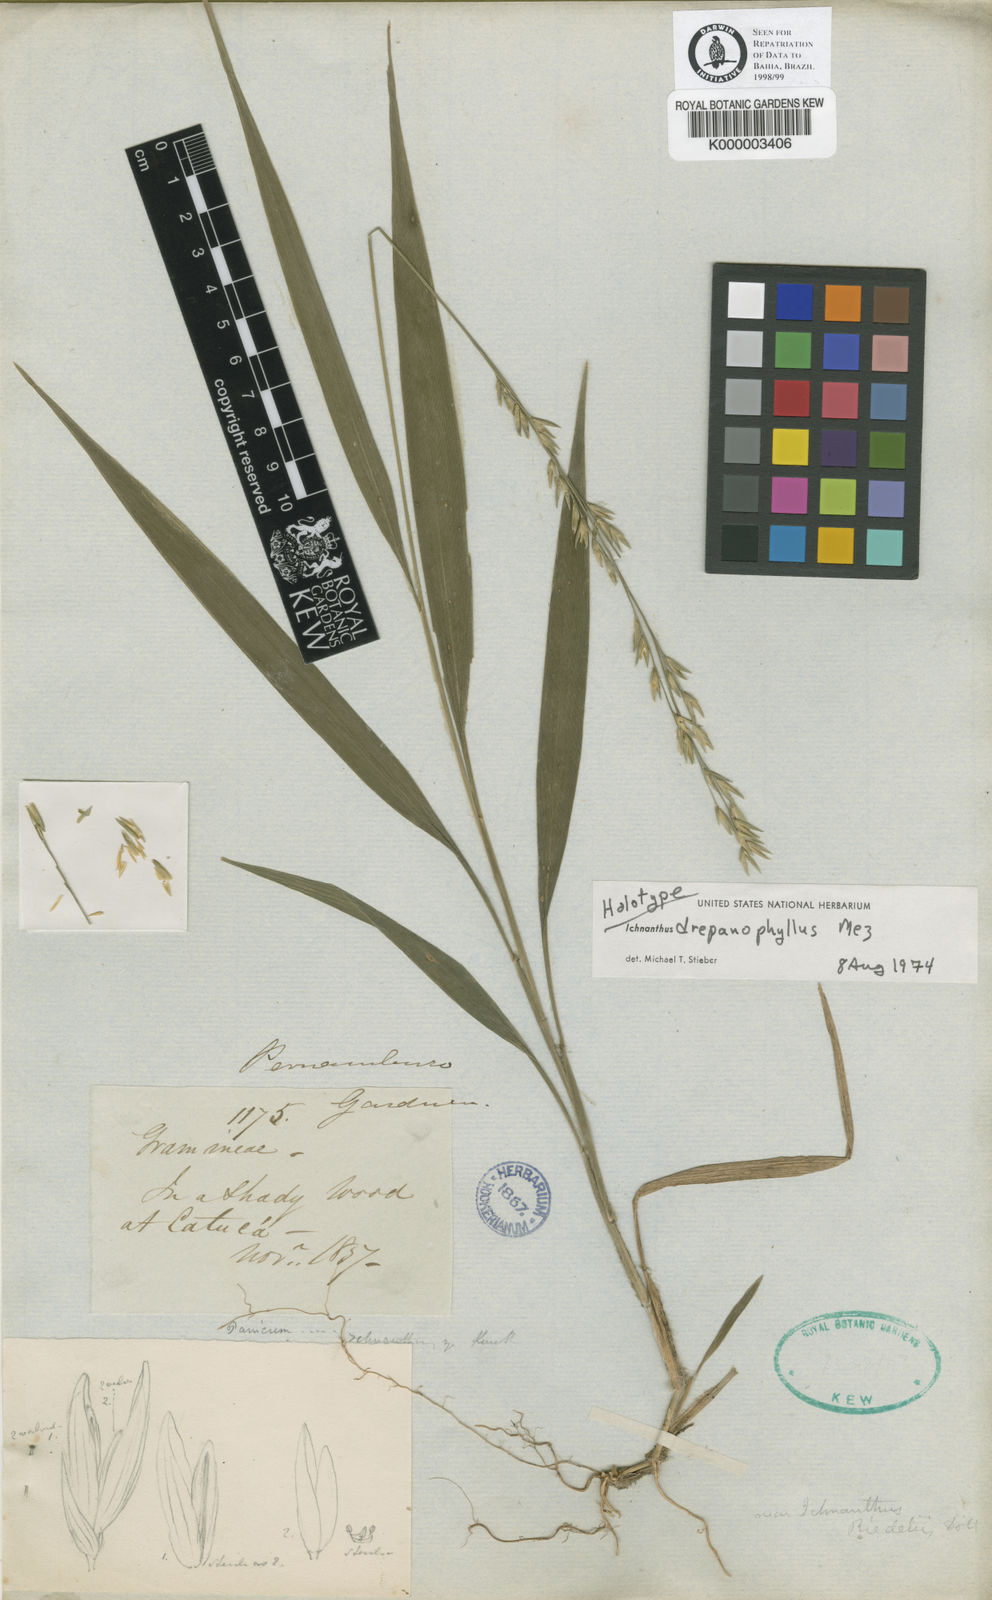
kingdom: Plantae
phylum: Tracheophyta
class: Liliopsida
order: Poales
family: Poaceae
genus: Ichnanthus
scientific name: Ichnanthus
